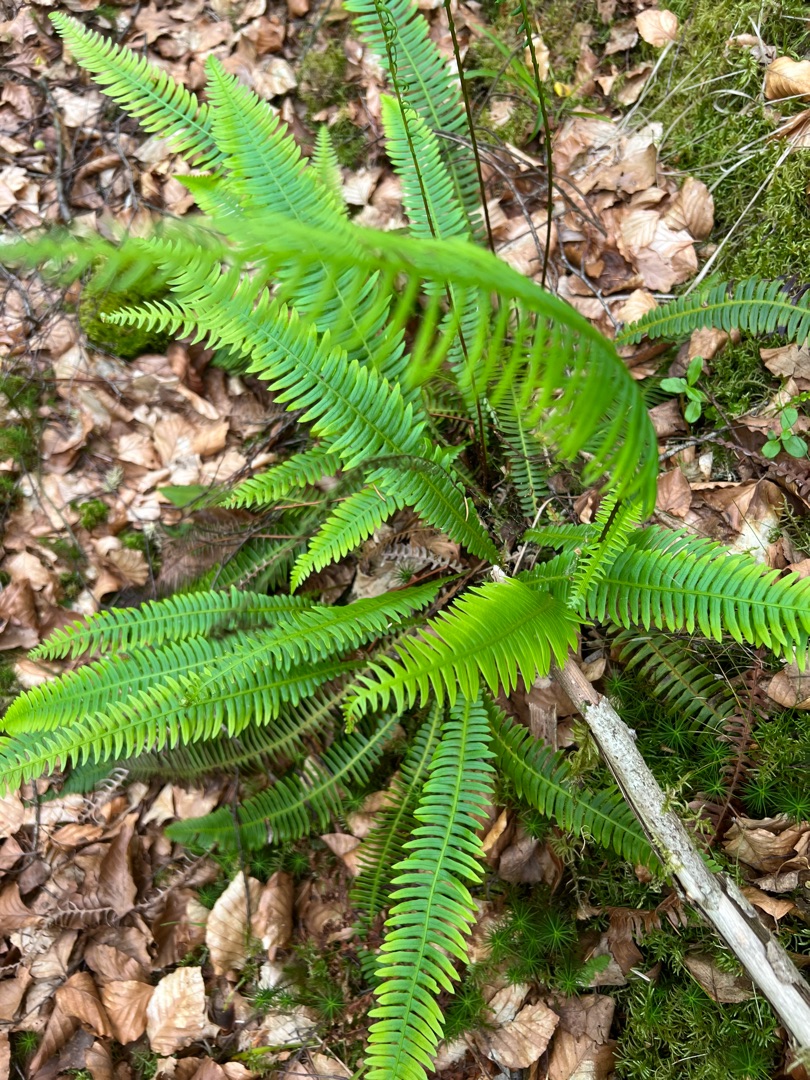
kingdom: Plantae
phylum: Tracheophyta
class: Polypodiopsida
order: Polypodiales
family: Blechnaceae
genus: Struthiopteris
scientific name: Struthiopteris spicant
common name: Kambregne
